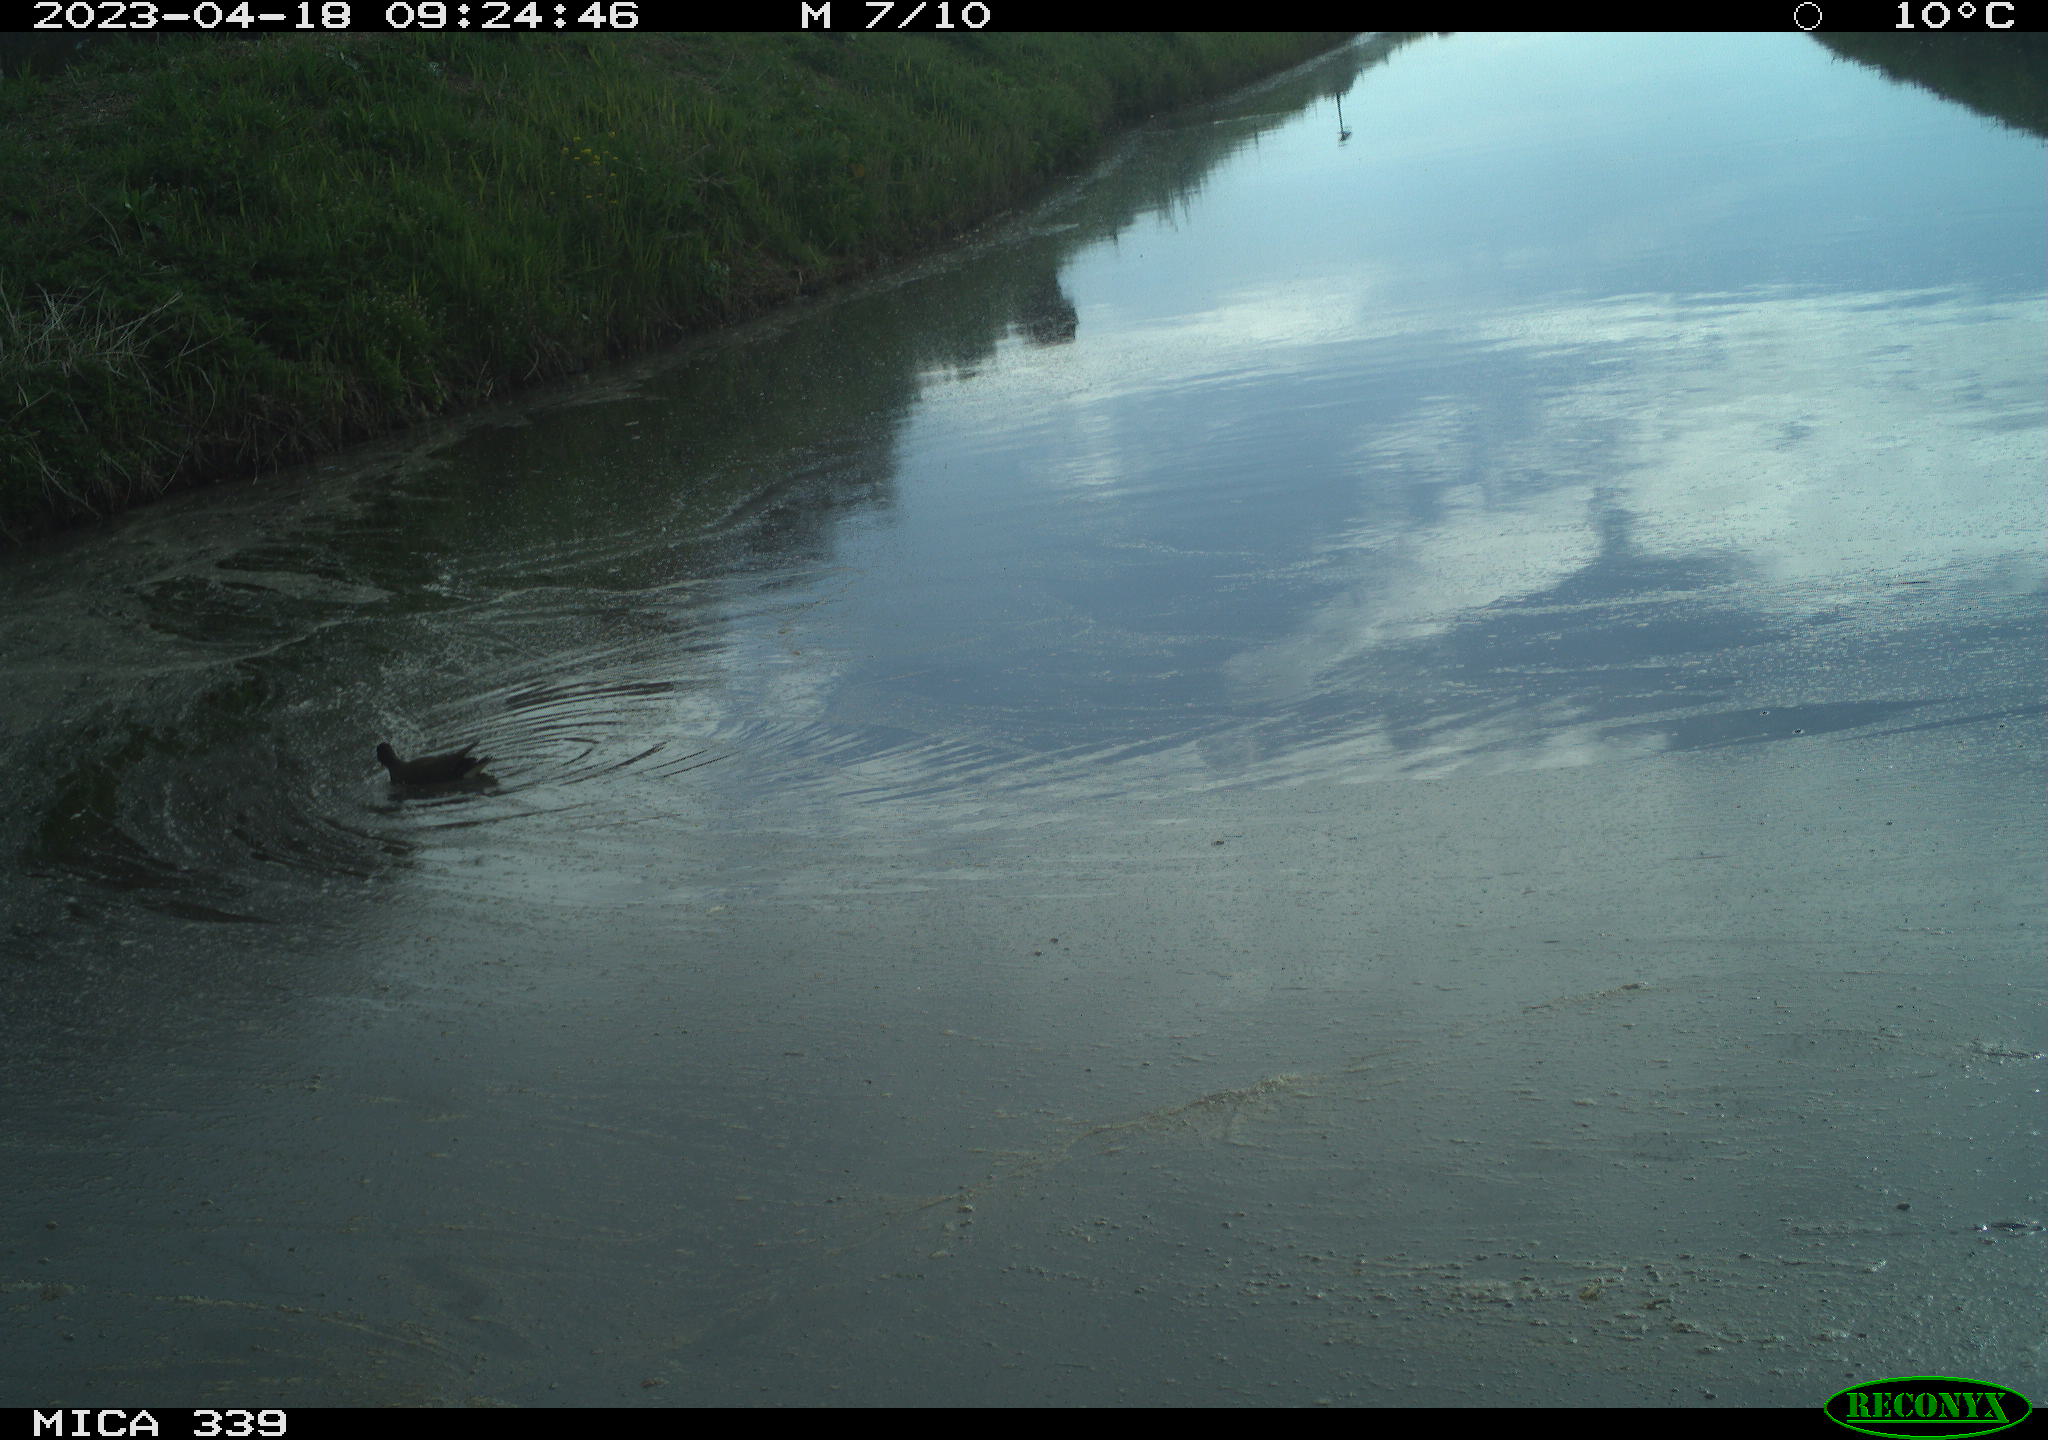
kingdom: Animalia
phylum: Chordata
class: Aves
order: Anseriformes
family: Anatidae
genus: Anas
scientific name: Anas
